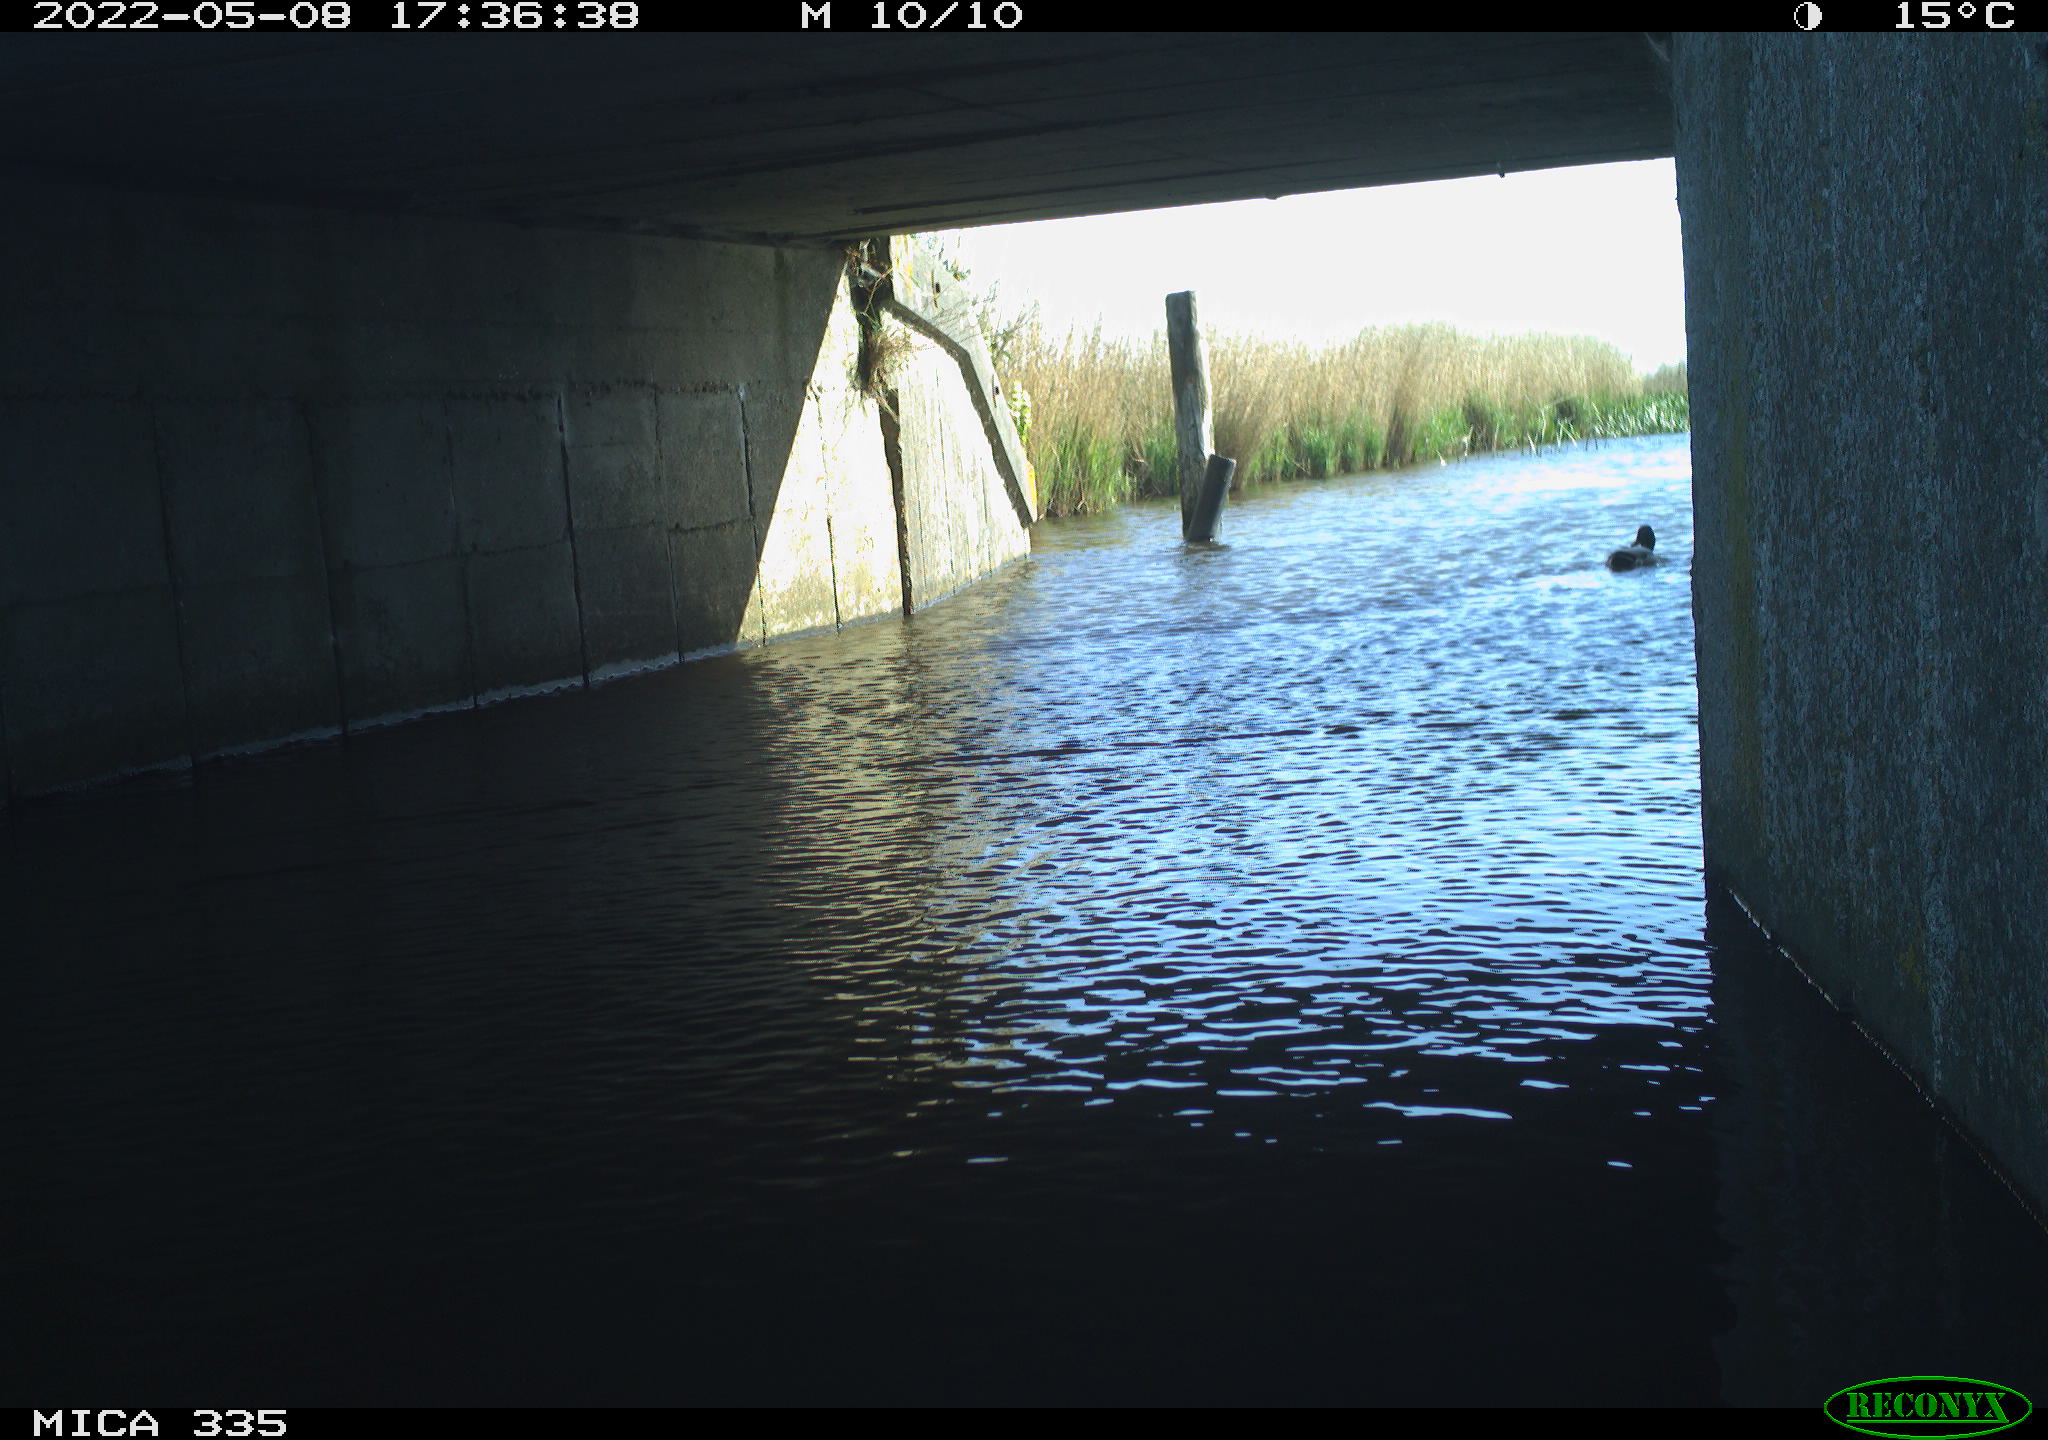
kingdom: Animalia
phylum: Chordata
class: Aves
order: Anseriformes
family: Anatidae
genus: Anas
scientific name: Anas platyrhynchos
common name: Mallard
